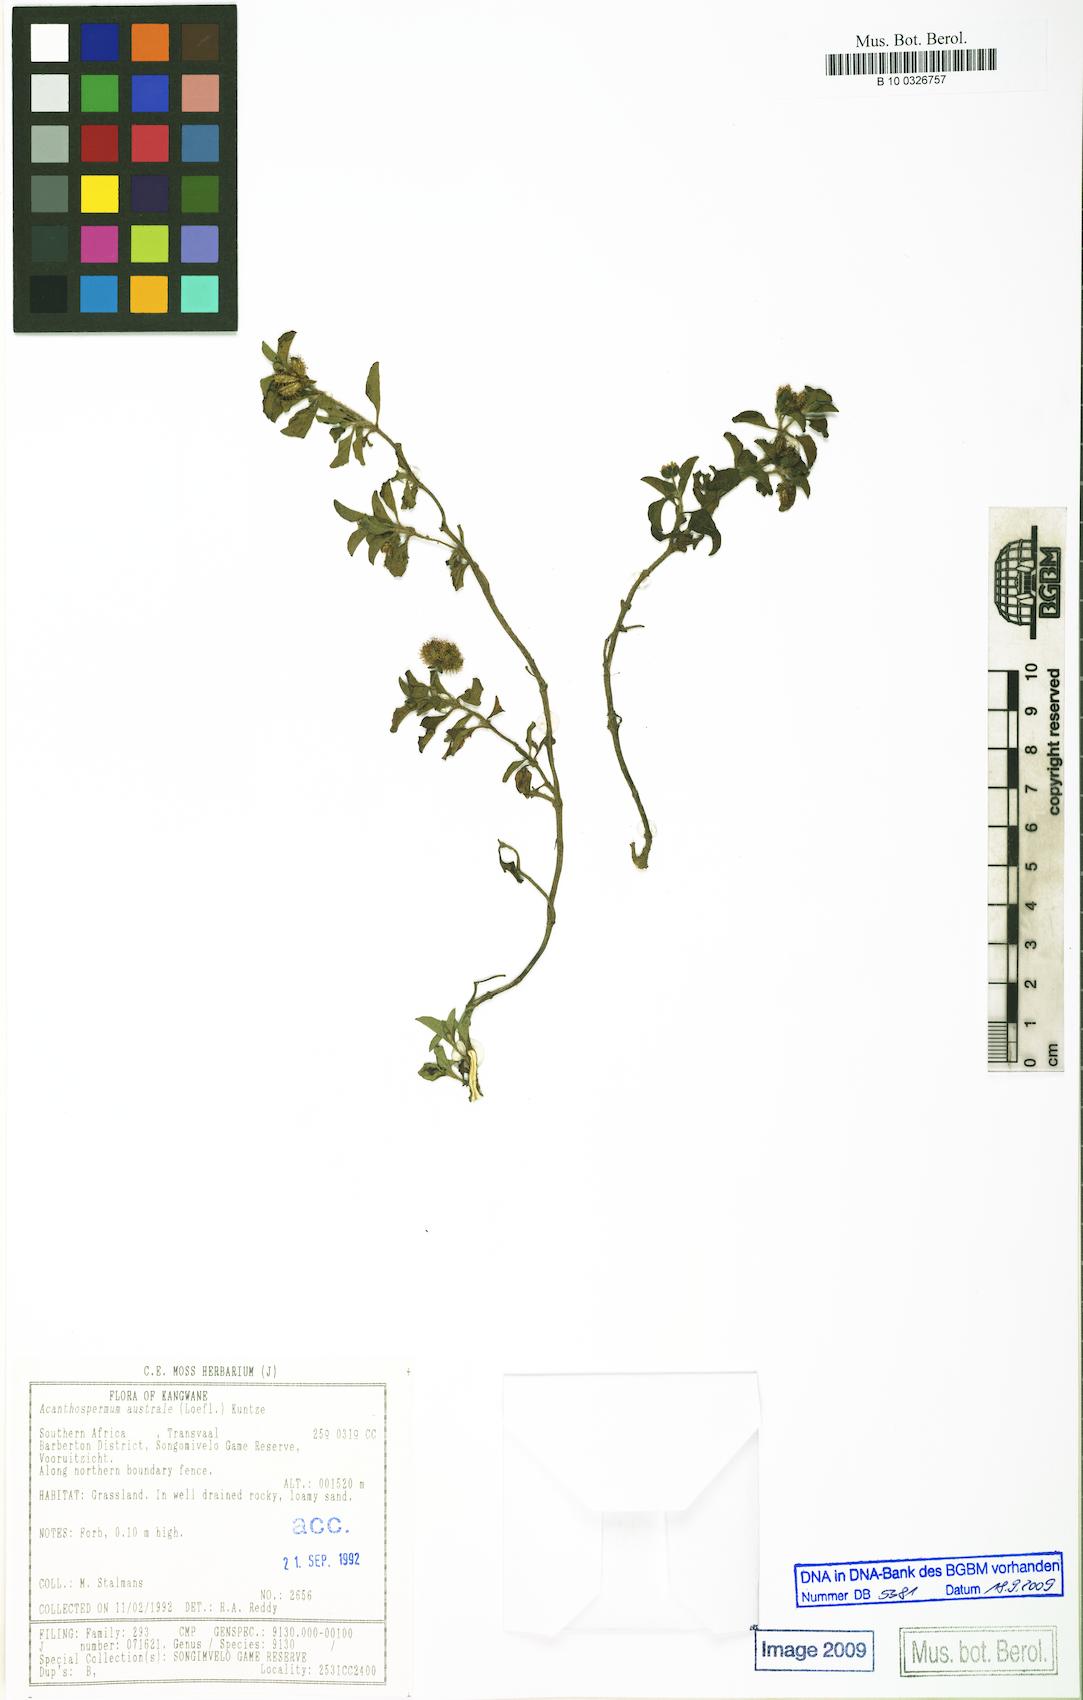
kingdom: Plantae
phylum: Tracheophyta
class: Magnoliopsida
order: Asterales
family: Asteraceae
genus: Acanthospermum
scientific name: Acanthospermum australe
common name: Paraguayan starbur
